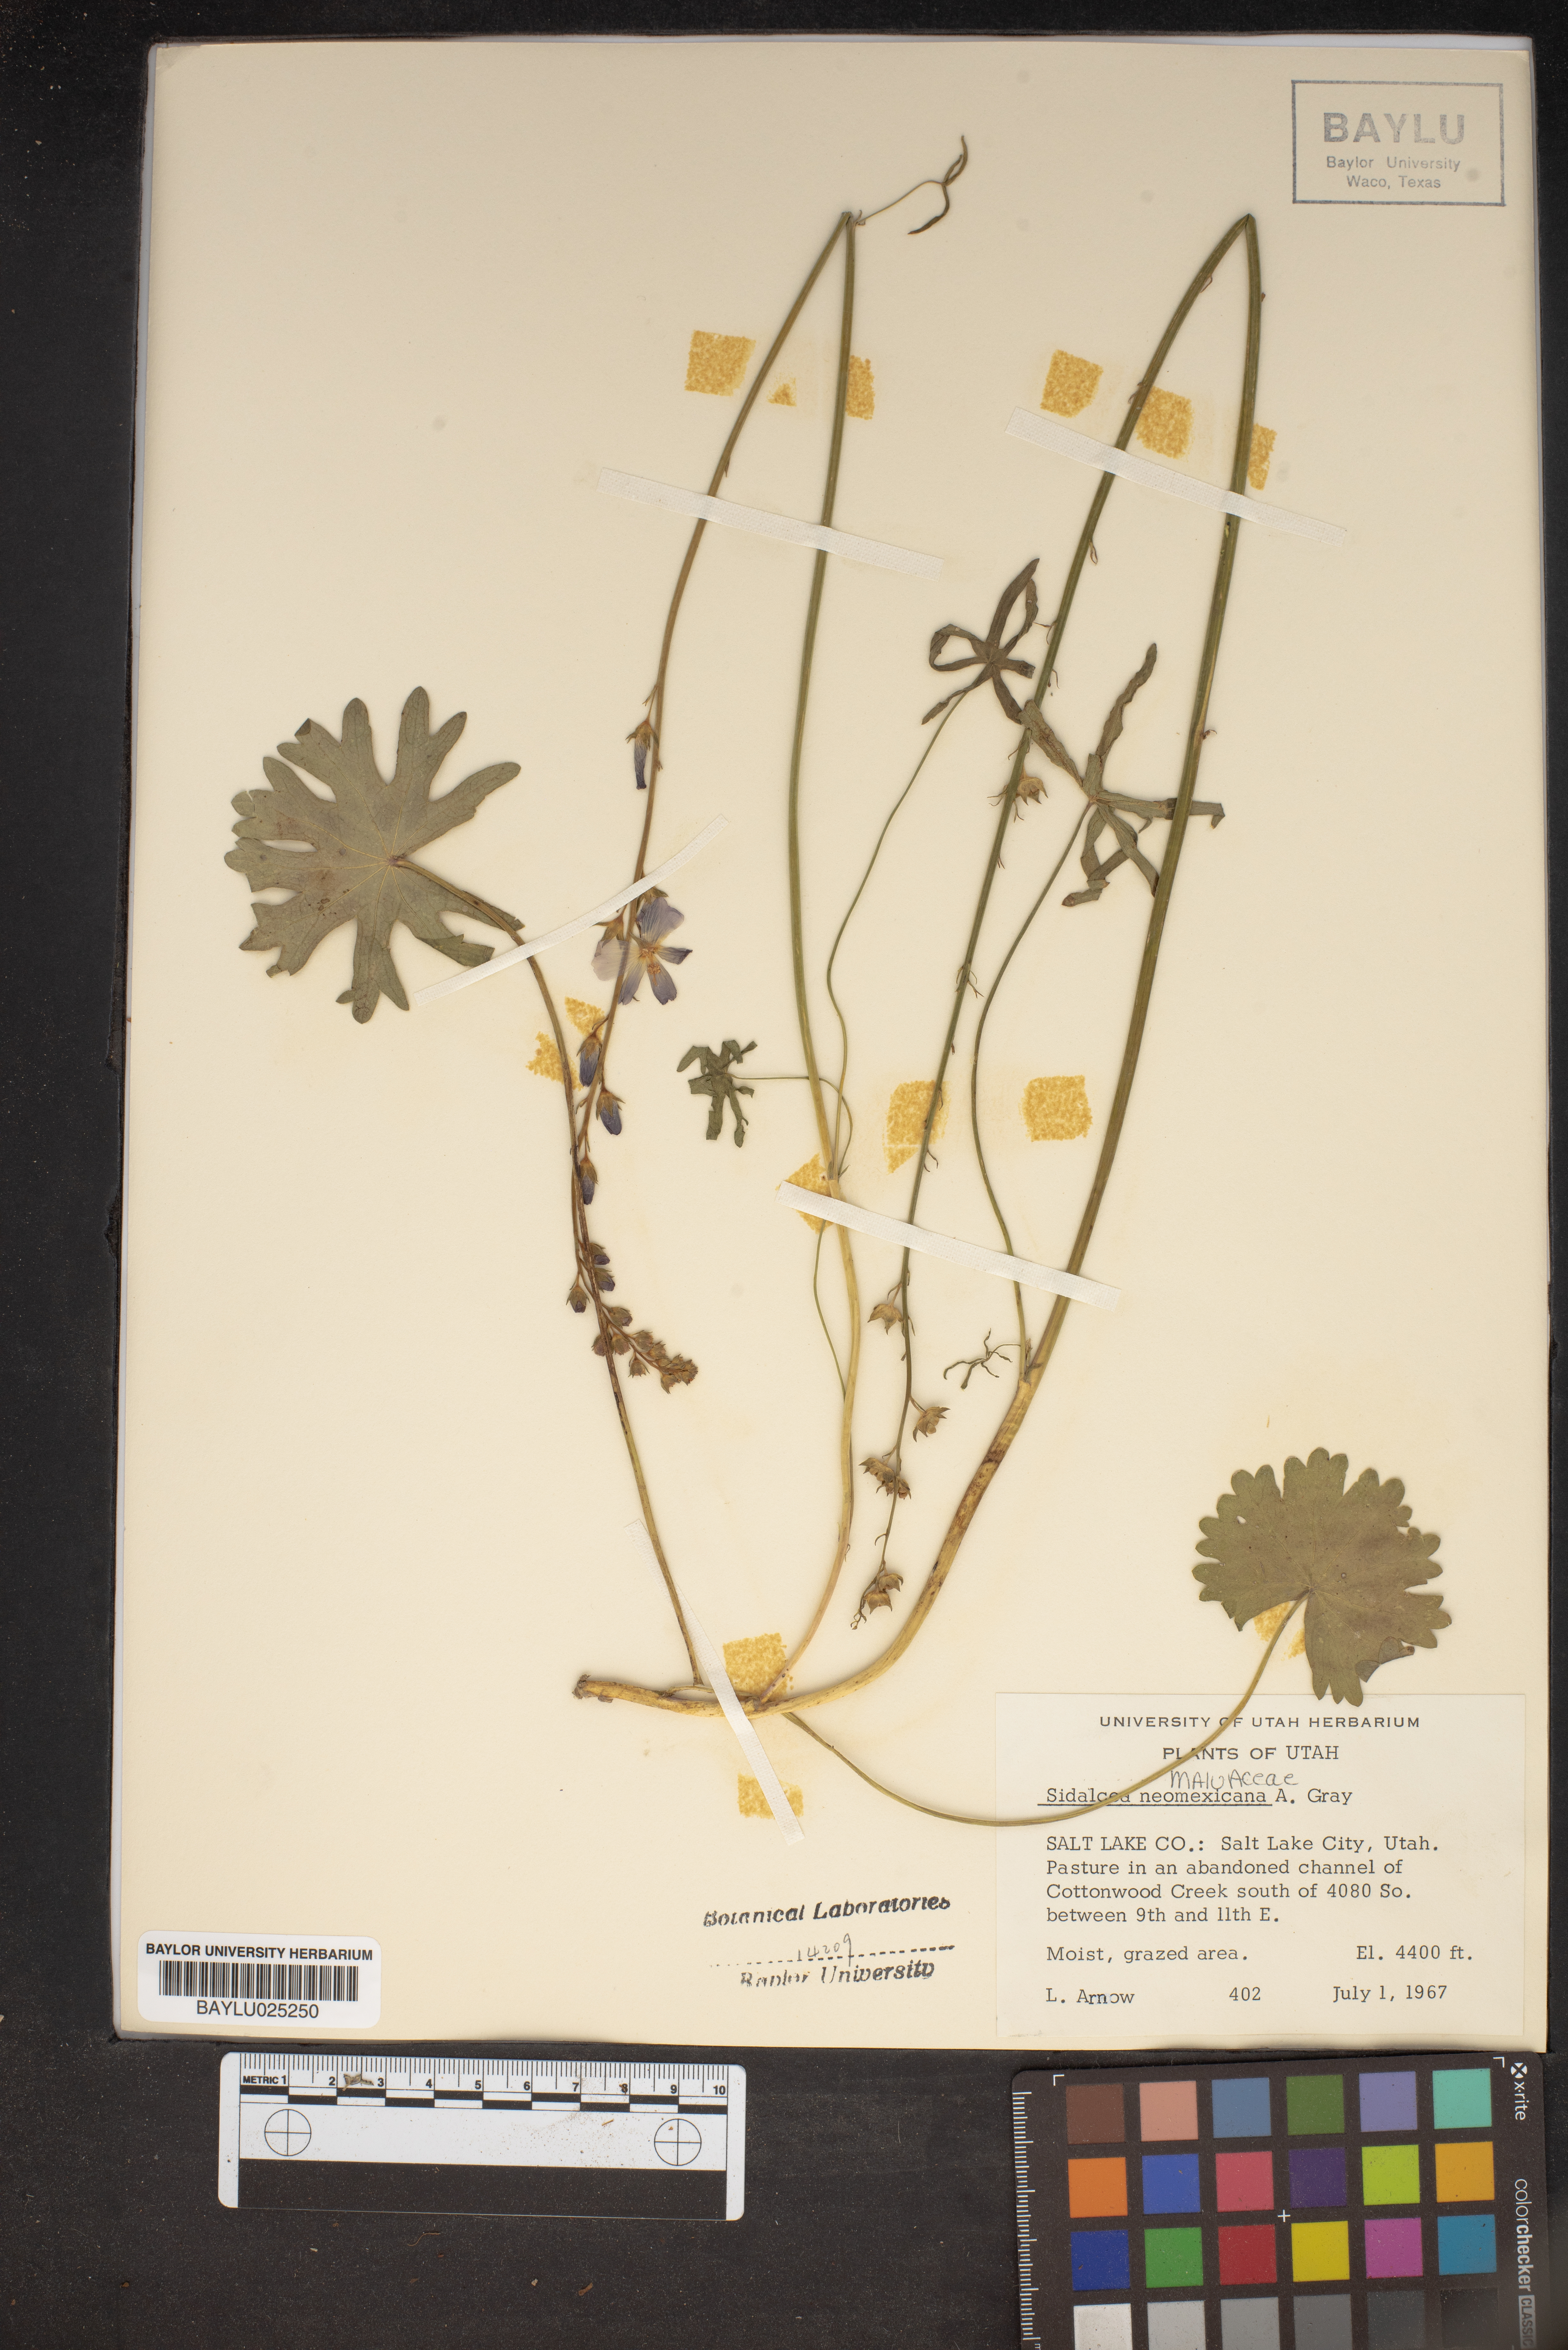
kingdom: Plantae
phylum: Tracheophyta
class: Magnoliopsida
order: Malvales
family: Malvaceae
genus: Sidalcea
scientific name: Sidalcea neomexicana
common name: New mexico checker
